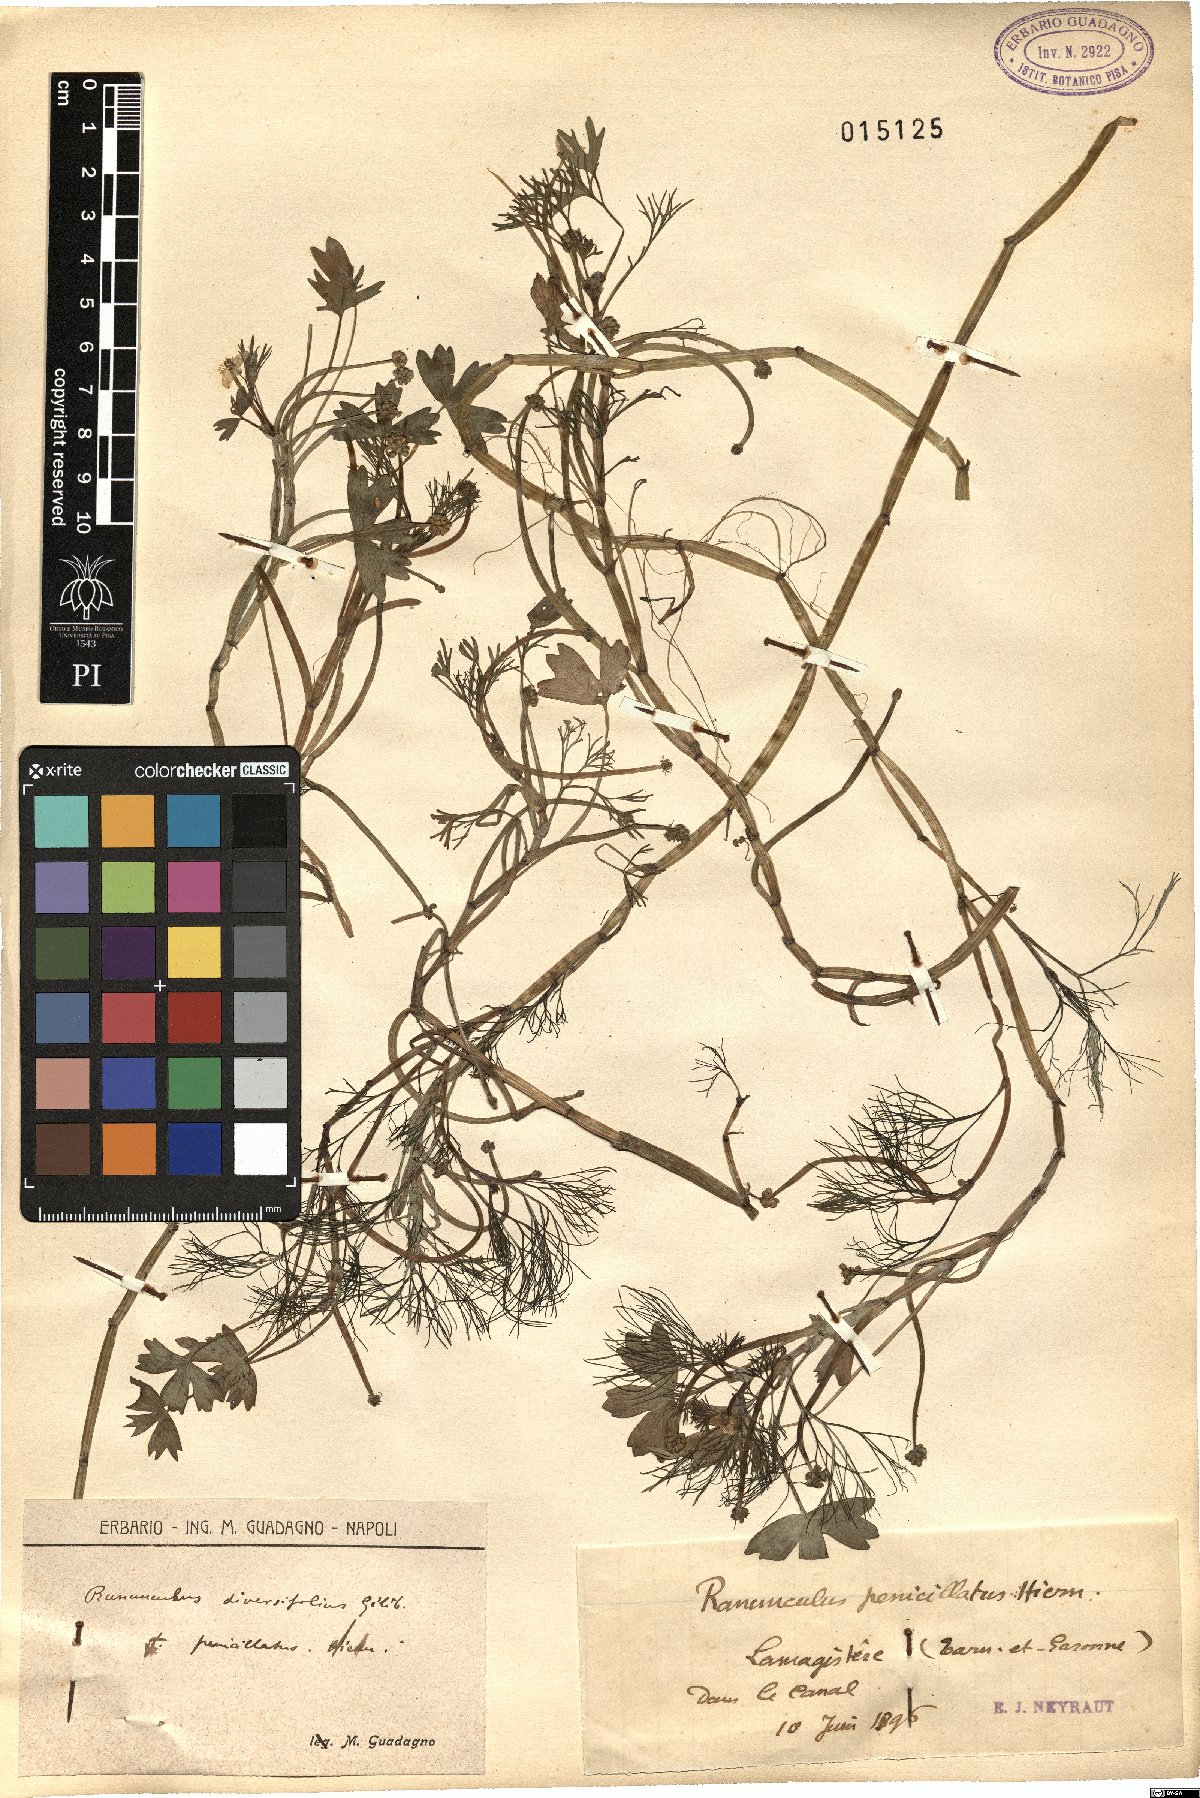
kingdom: Plantae
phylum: Tracheophyta
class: Magnoliopsida
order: Ranunculales
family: Ranunculaceae
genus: Ranunculus
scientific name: Ranunculus penicillatus
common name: Stream water-crowfoot
